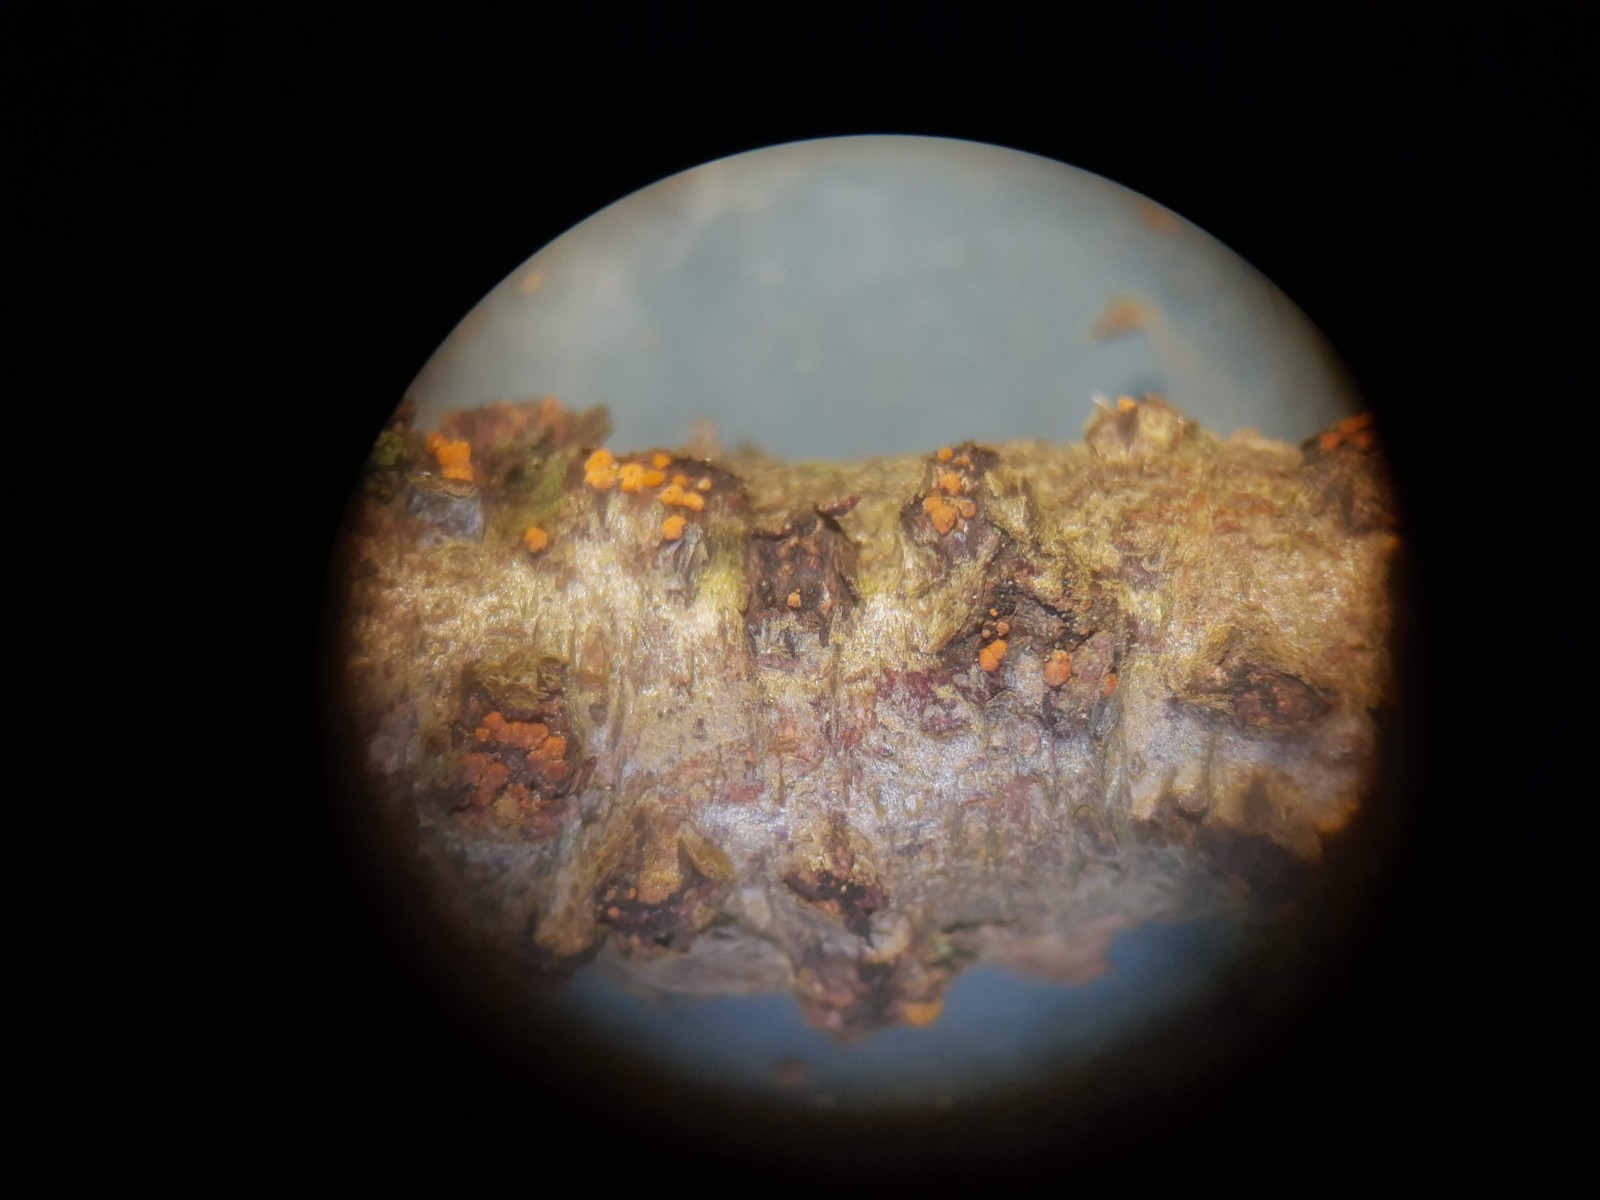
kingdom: Fungi
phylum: Ascomycota
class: Sordariomycetes
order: Hypocreales
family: Nectriaceae
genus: Dialonectria
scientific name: Dialonectria magnusiana
